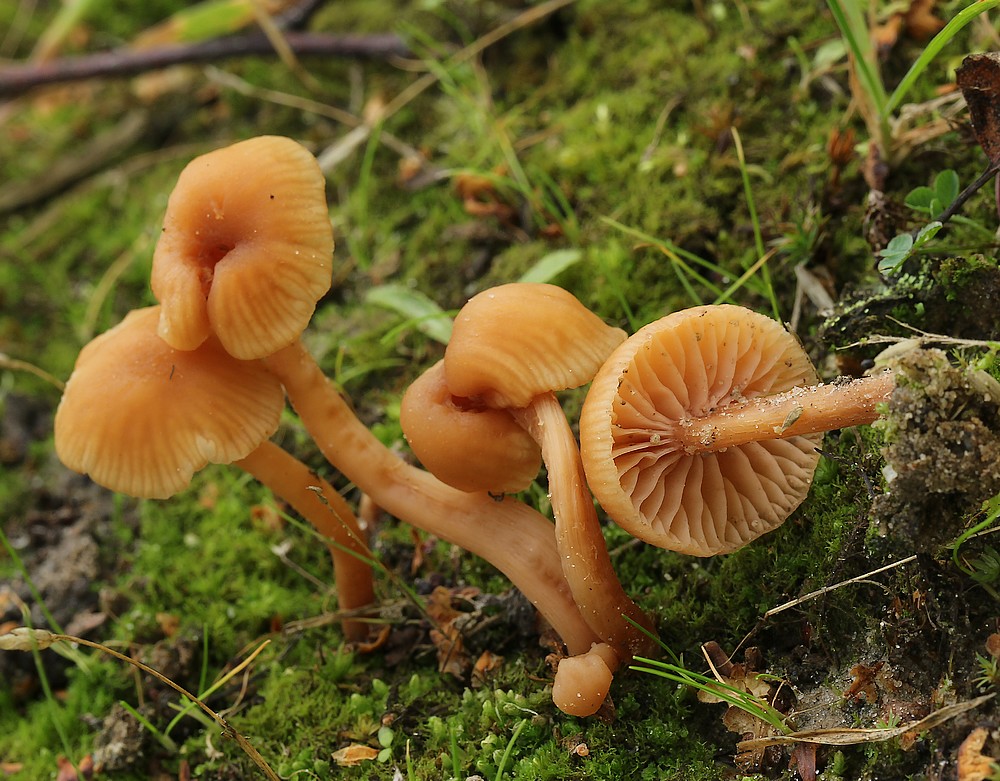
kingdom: Fungi
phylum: Basidiomycota
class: Agaricomycetes
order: Agaricales
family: Hydnangiaceae
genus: Laccaria
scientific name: Laccaria laccata
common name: rød ametysthat
